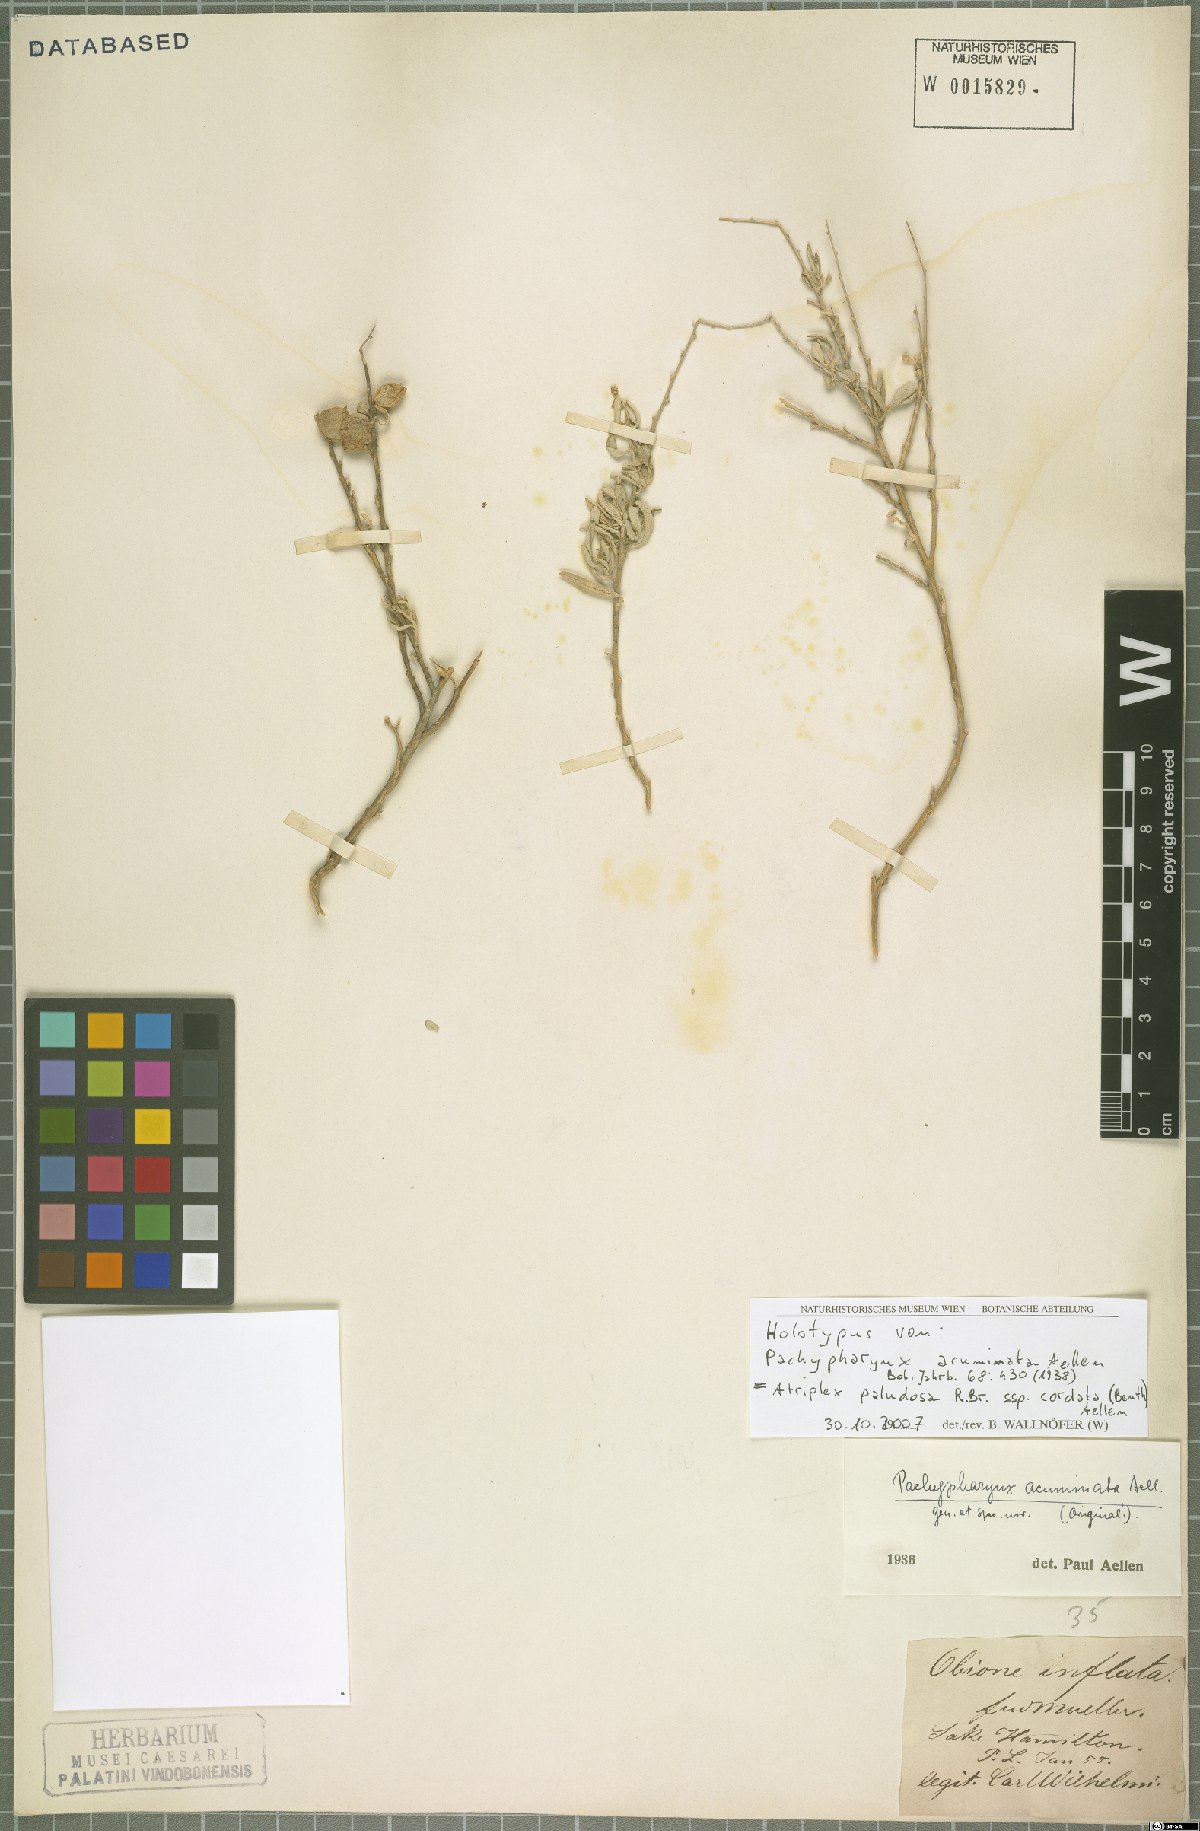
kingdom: Plantae
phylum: Tracheophyta
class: Magnoliopsida
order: Caryophyllales
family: Amaranthaceae
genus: Atriplex
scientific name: Atriplex paludosa
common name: Marsh saltbush
